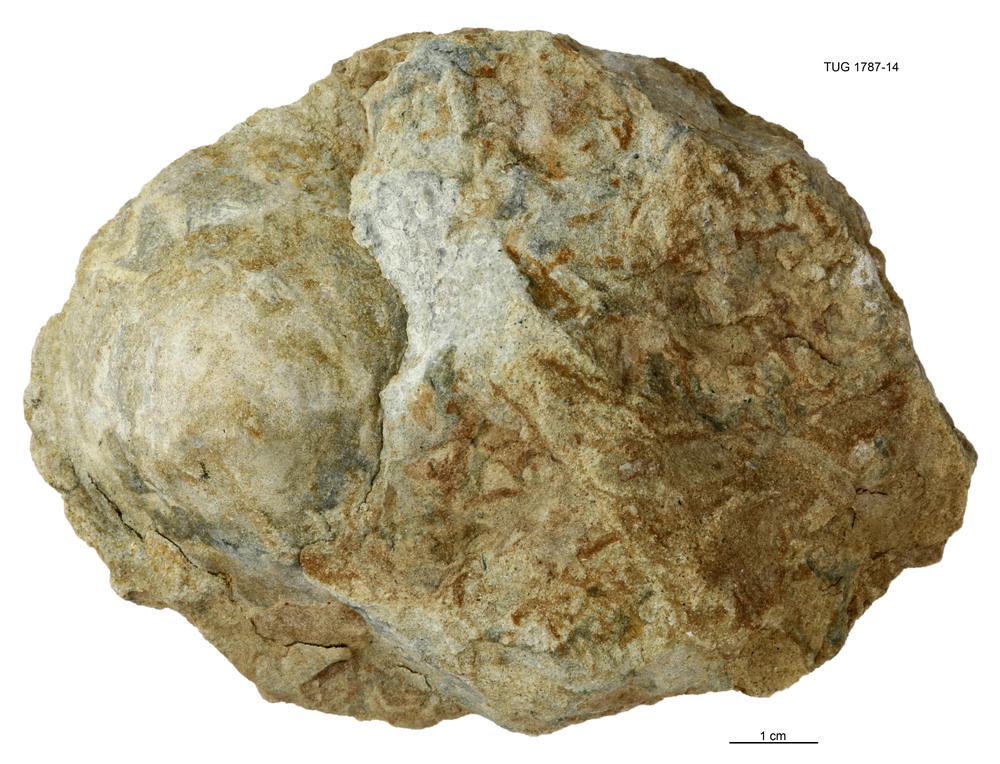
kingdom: Animalia
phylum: Brachiopoda
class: Lingulata
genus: Pseudometoptoma
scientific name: Pseudometoptoma
